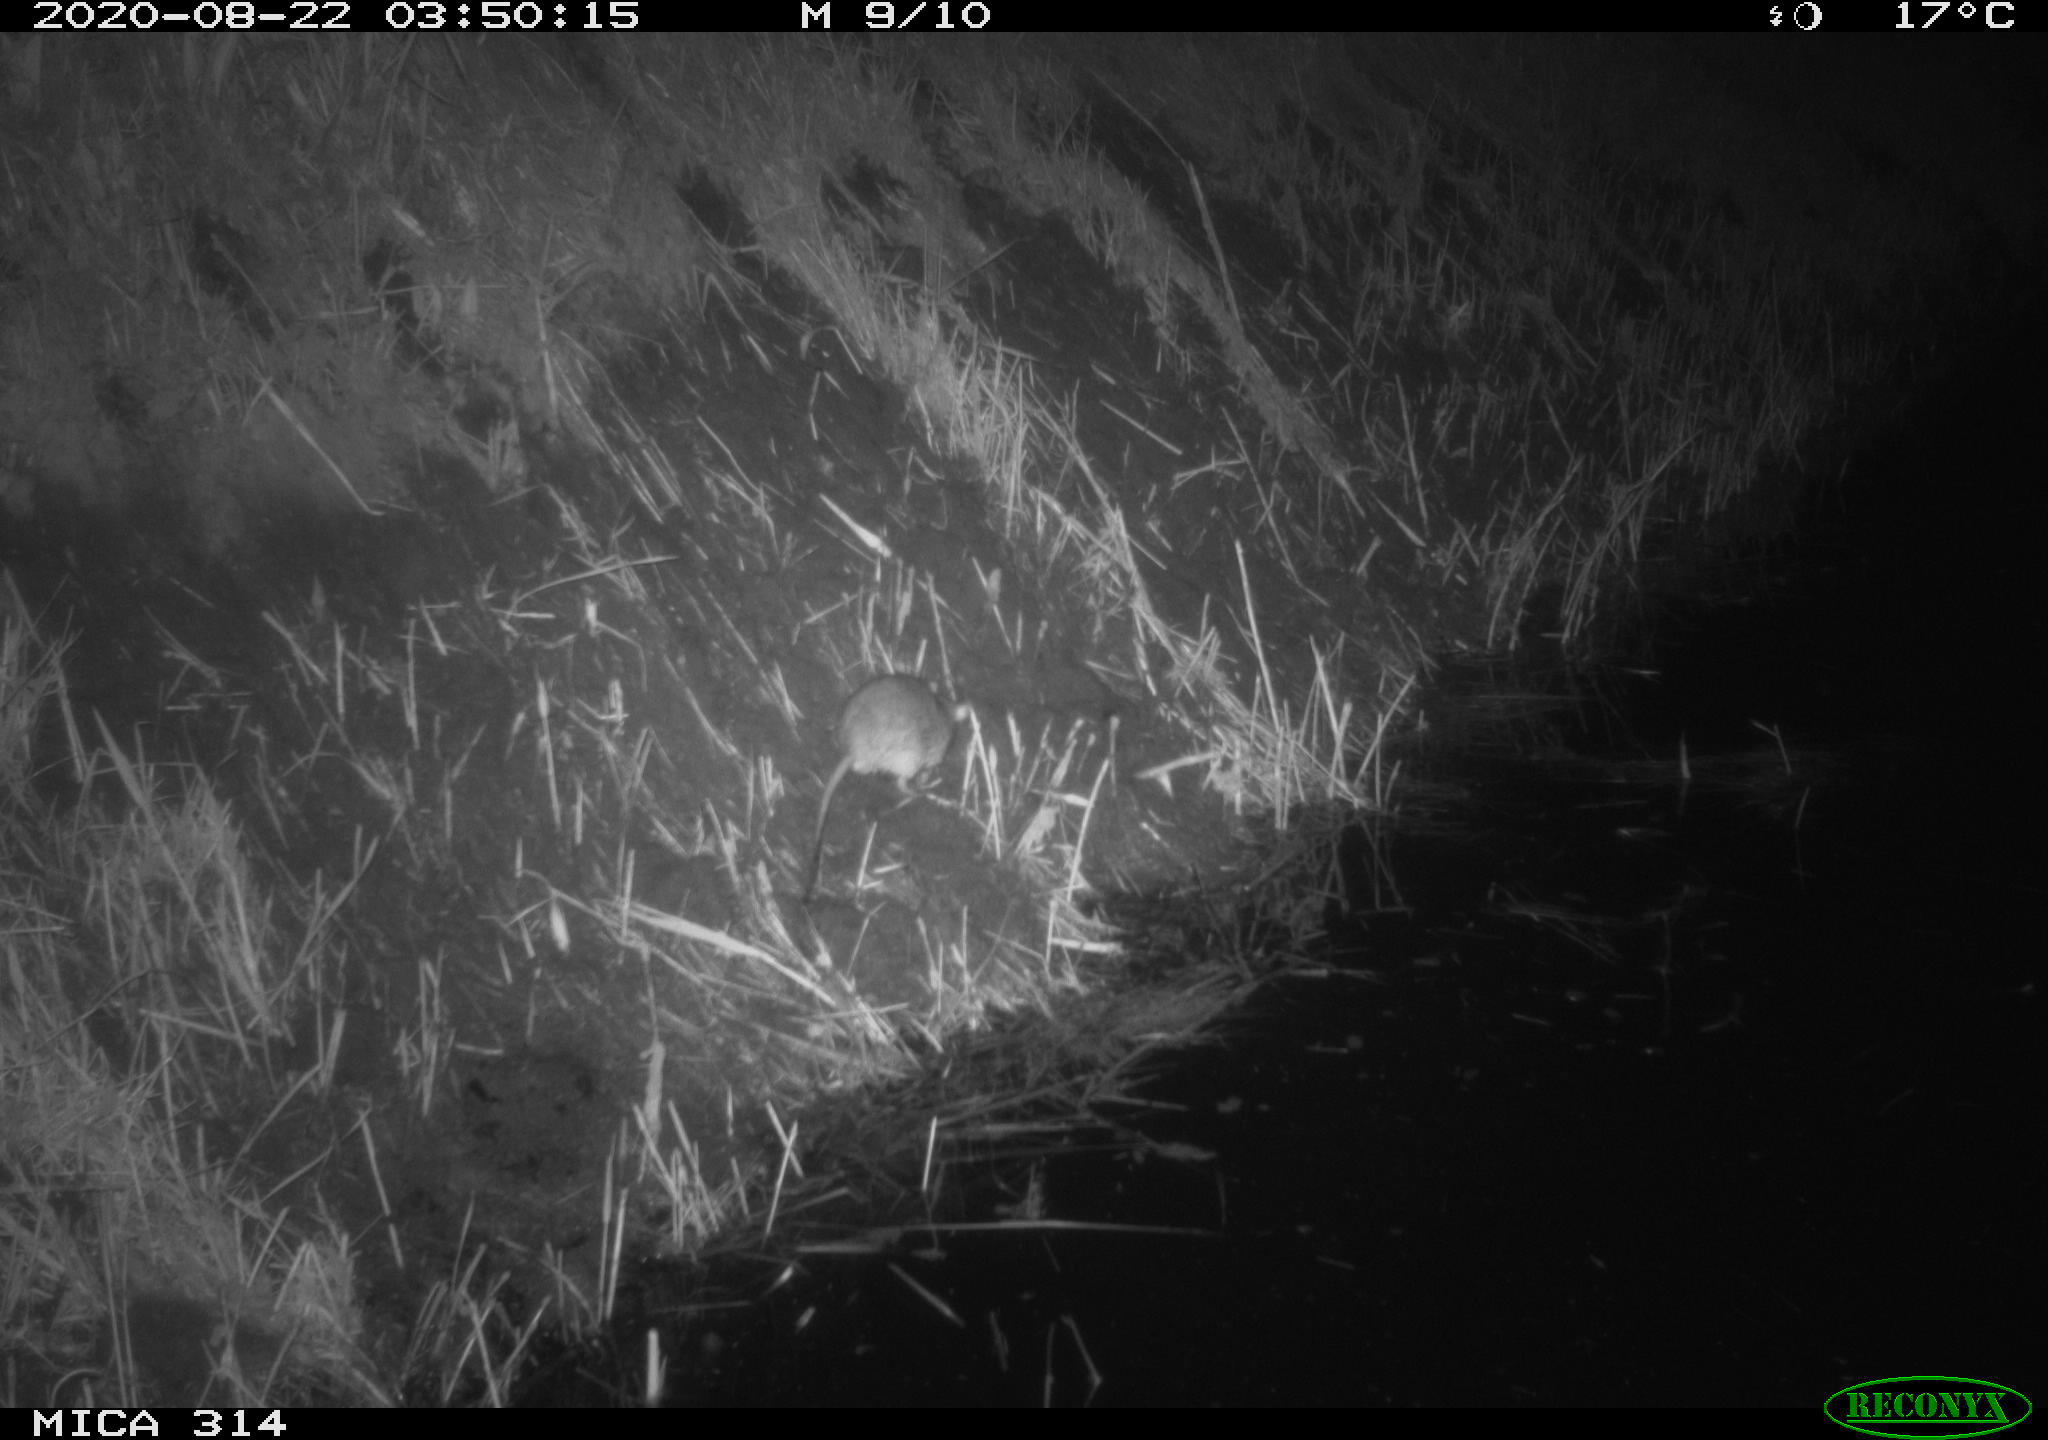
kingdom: Animalia
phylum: Chordata
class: Mammalia
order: Rodentia
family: Muridae
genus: Rattus
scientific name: Rattus norvegicus
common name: Brown rat
